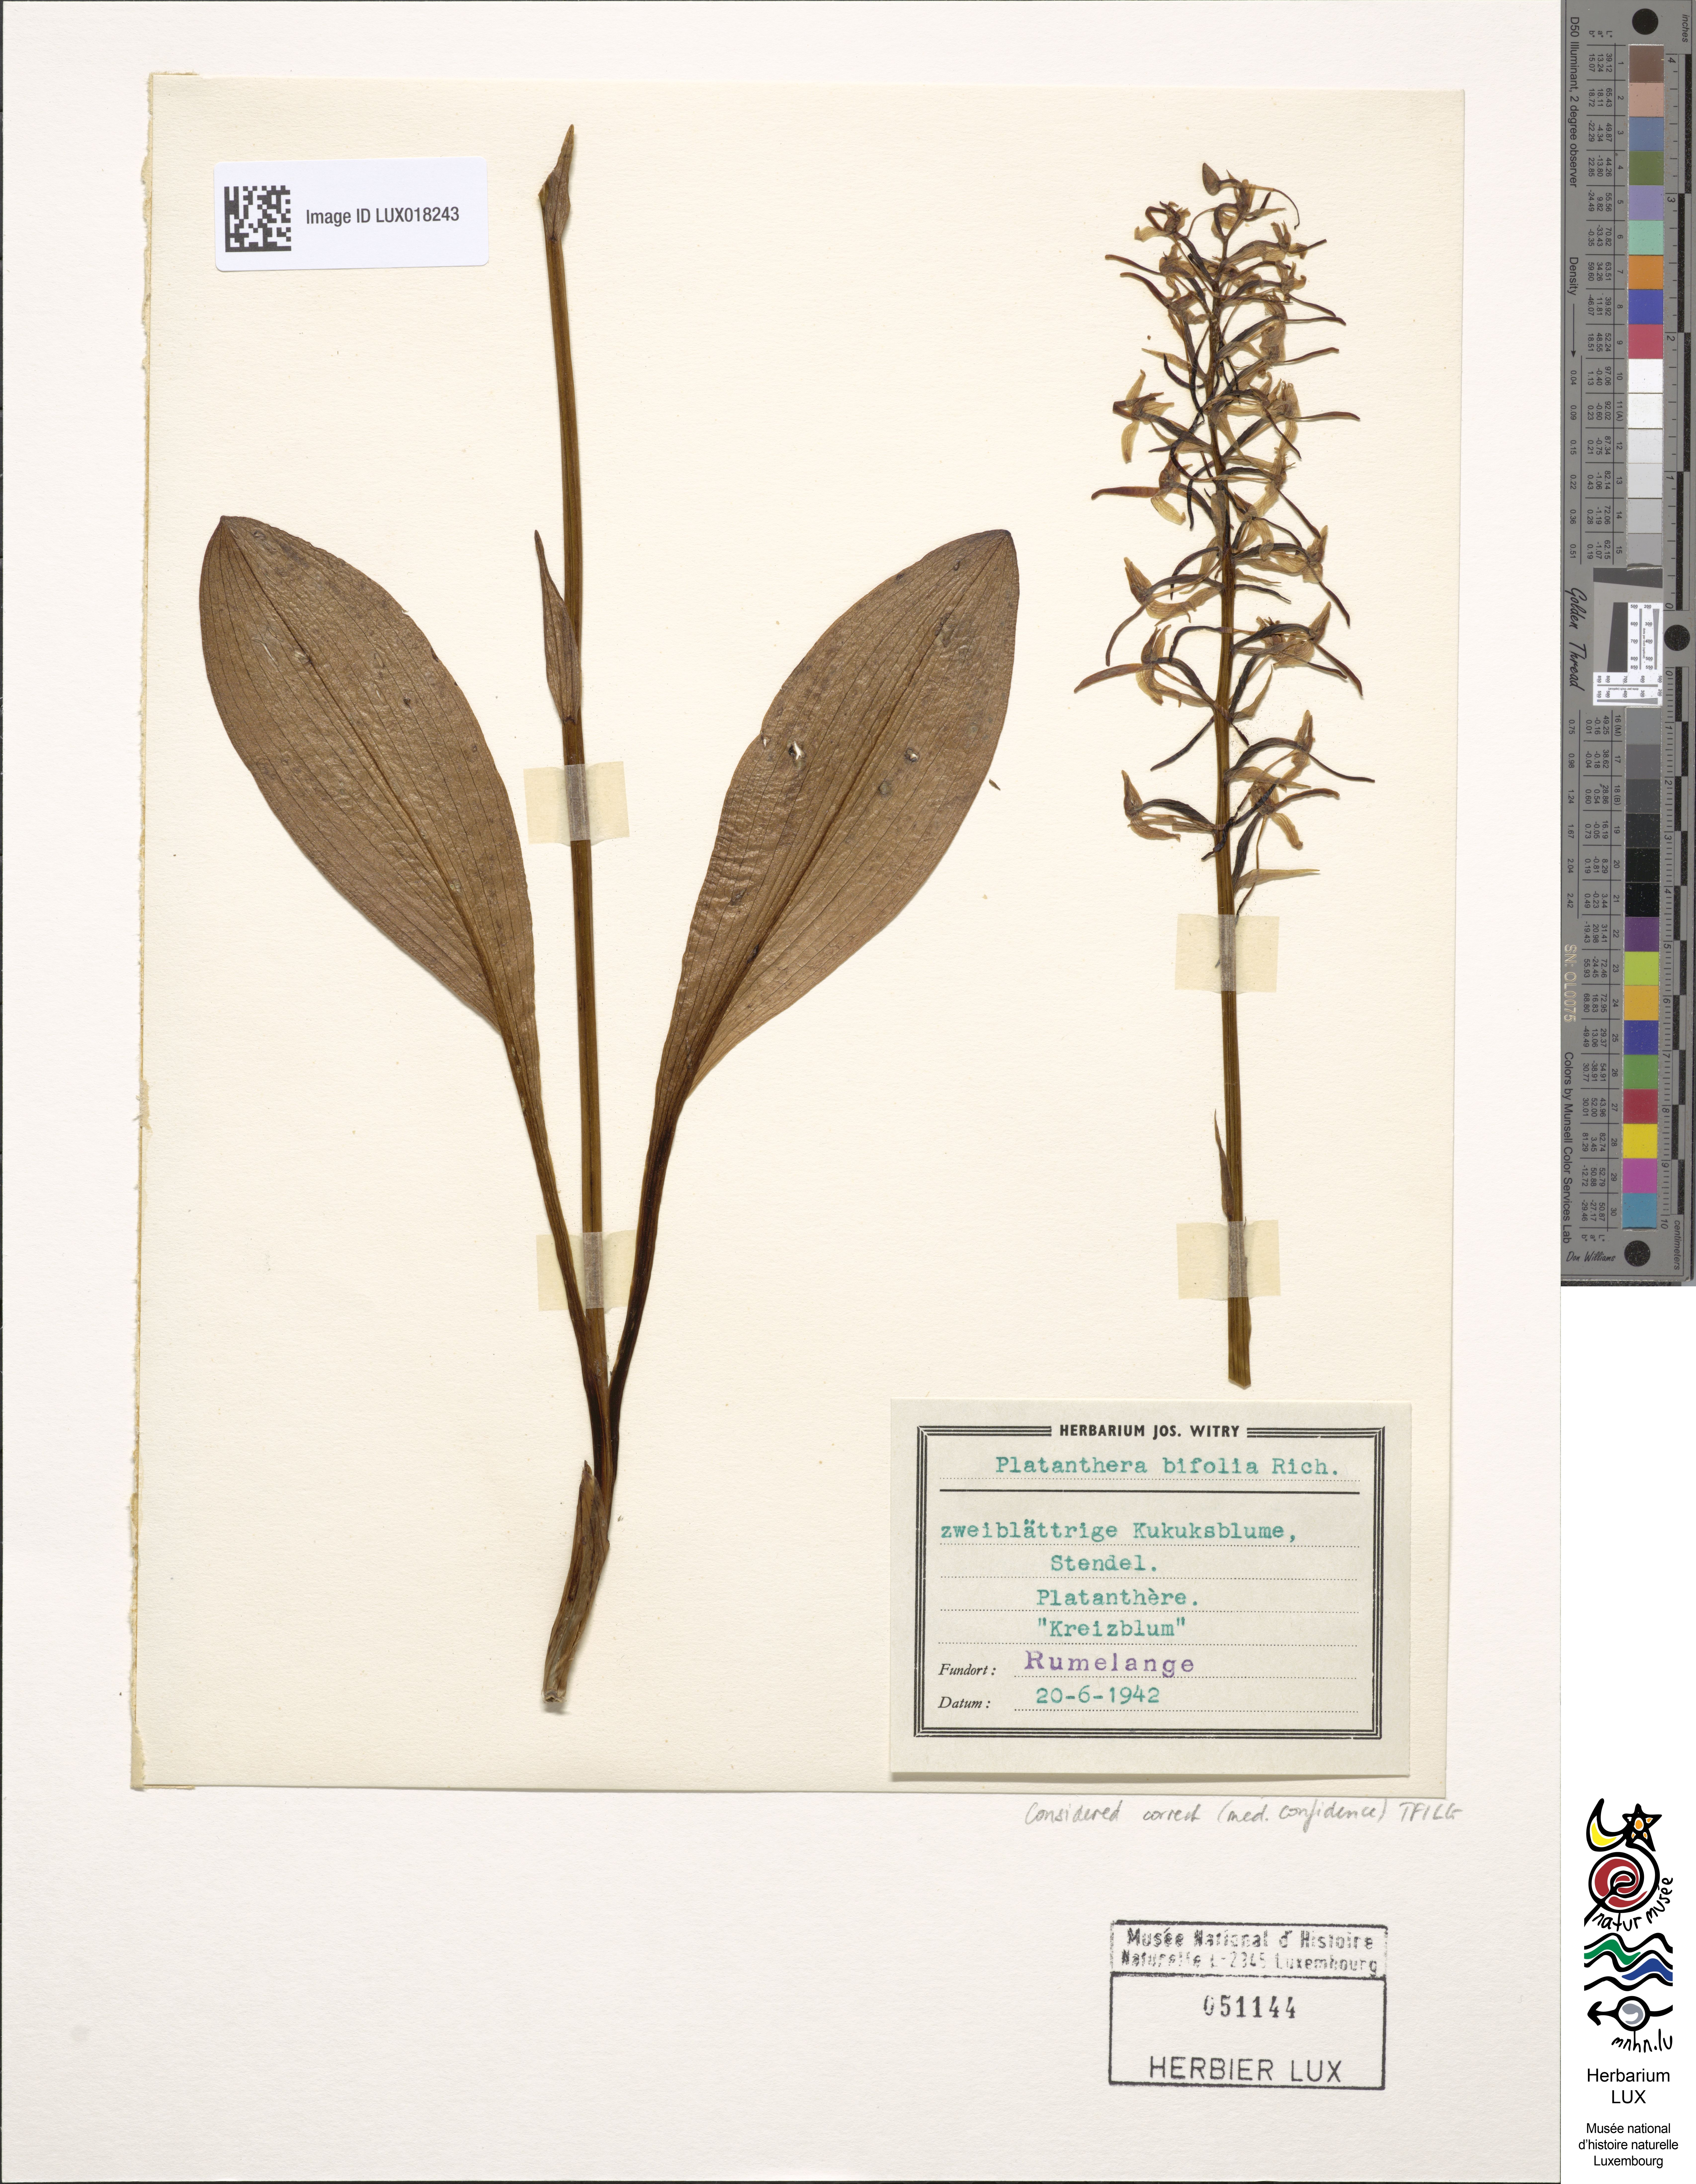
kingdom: Plantae
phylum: Tracheophyta
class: Liliopsida
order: Asparagales
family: Orchidaceae
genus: Platanthera
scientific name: Platanthera bifolia
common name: Lesser butterfly-orchid
